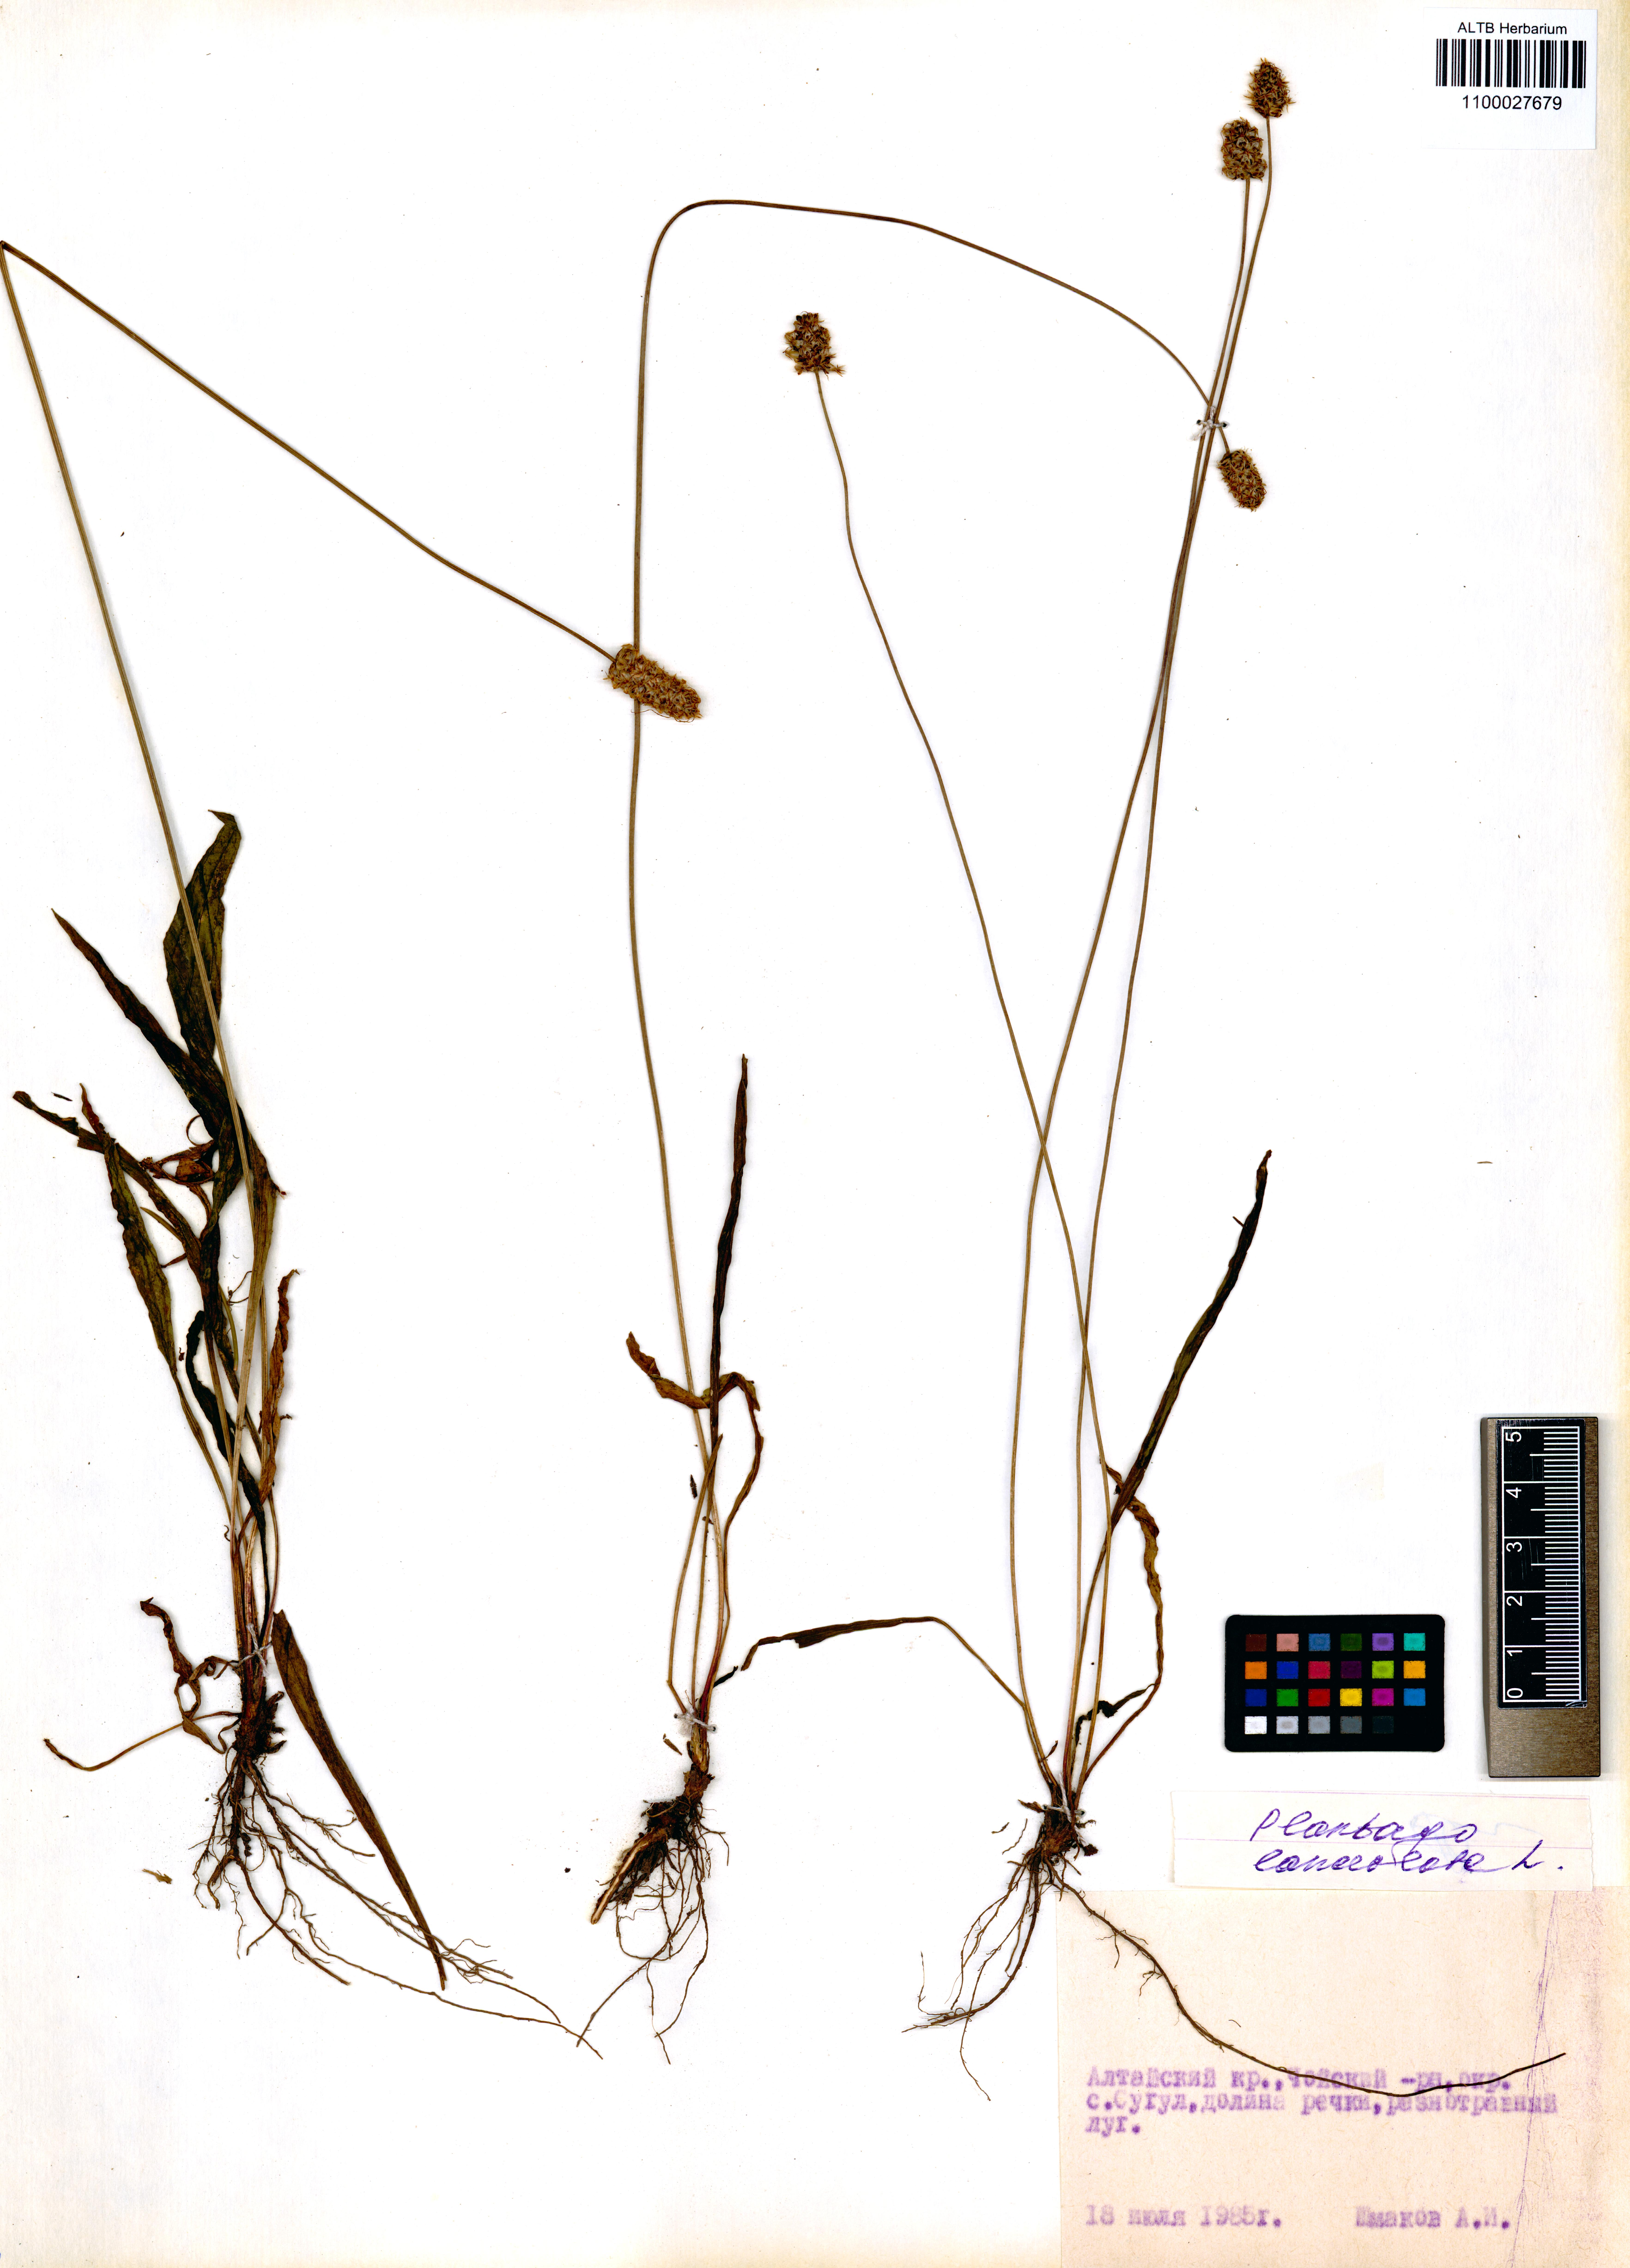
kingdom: Plantae
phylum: Tracheophyta
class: Magnoliopsida
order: Lamiales
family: Plantaginaceae
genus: Plantago
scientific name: Plantago lanceolata
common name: Ribwort plantain
